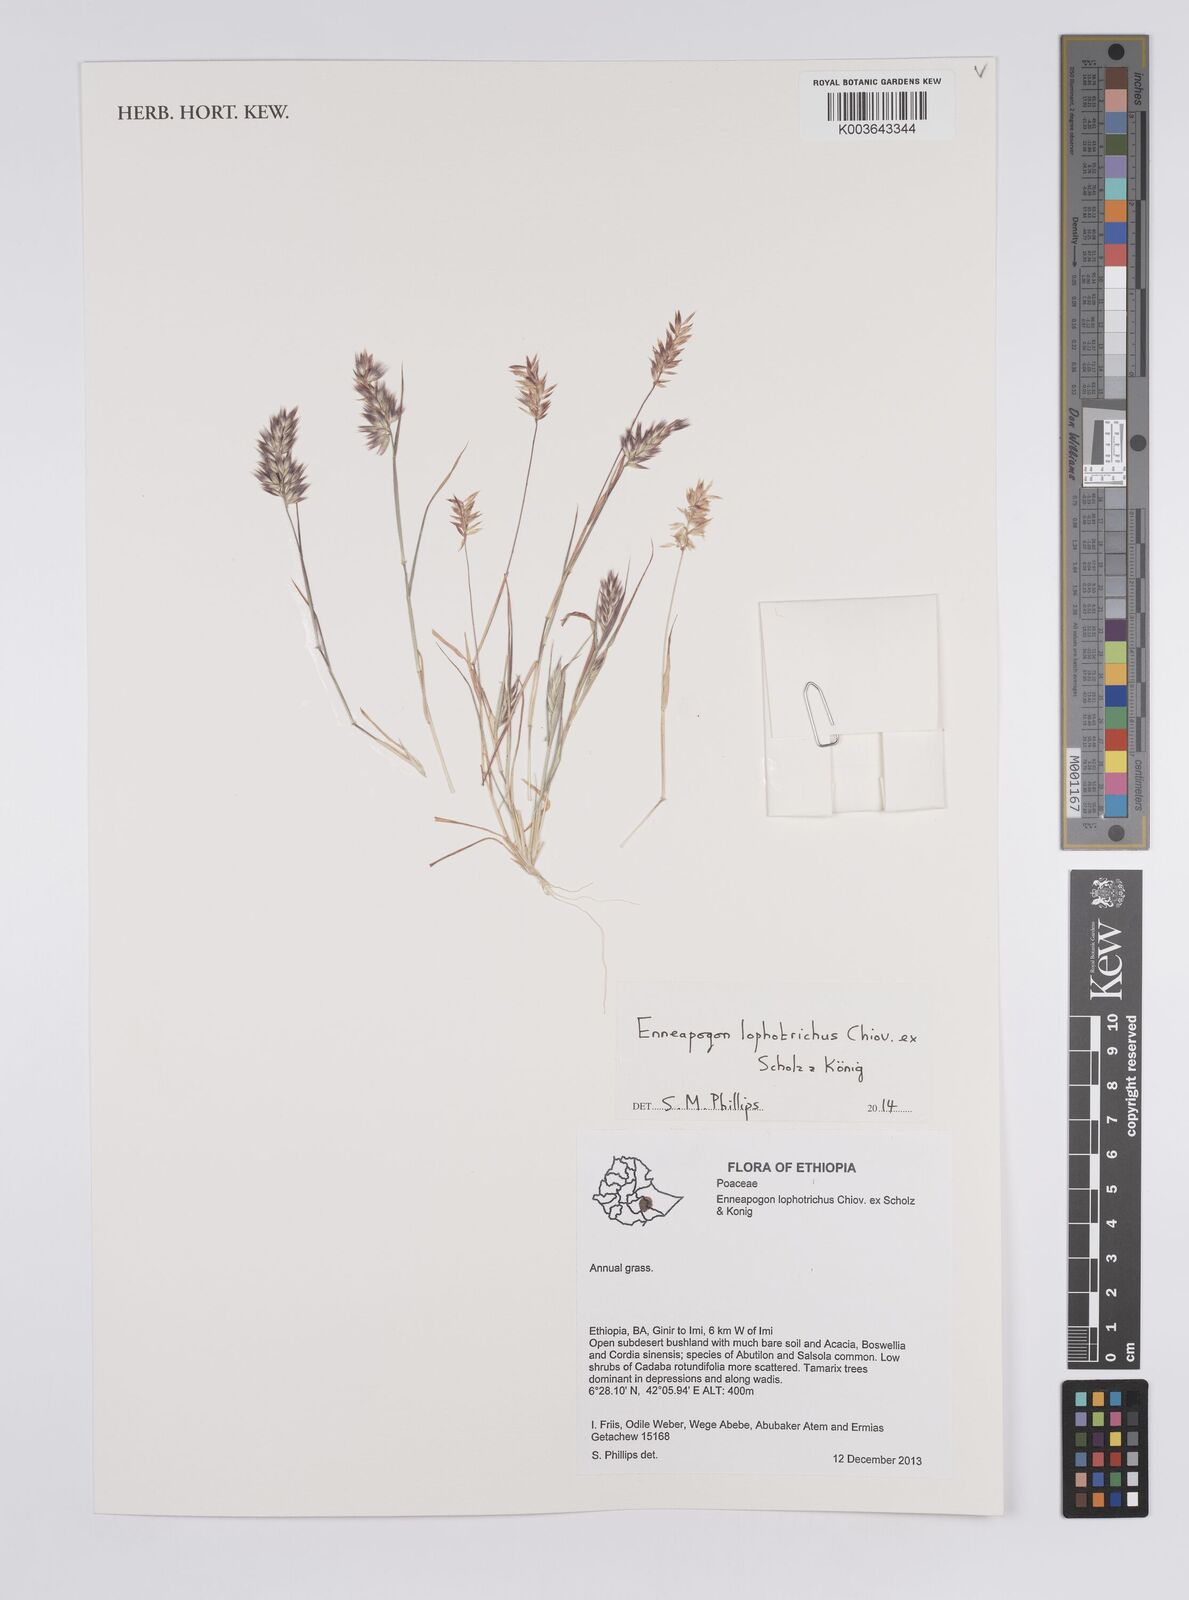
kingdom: Plantae
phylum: Tracheophyta
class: Liliopsida
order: Poales
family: Poaceae
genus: Enneapogon
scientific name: Enneapogon lophotrichus
